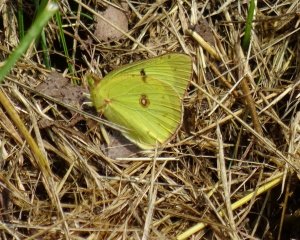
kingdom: Animalia
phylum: Arthropoda
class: Insecta
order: Lepidoptera
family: Pieridae
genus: Colias
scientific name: Colias philodice
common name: Clouded Sulphur
